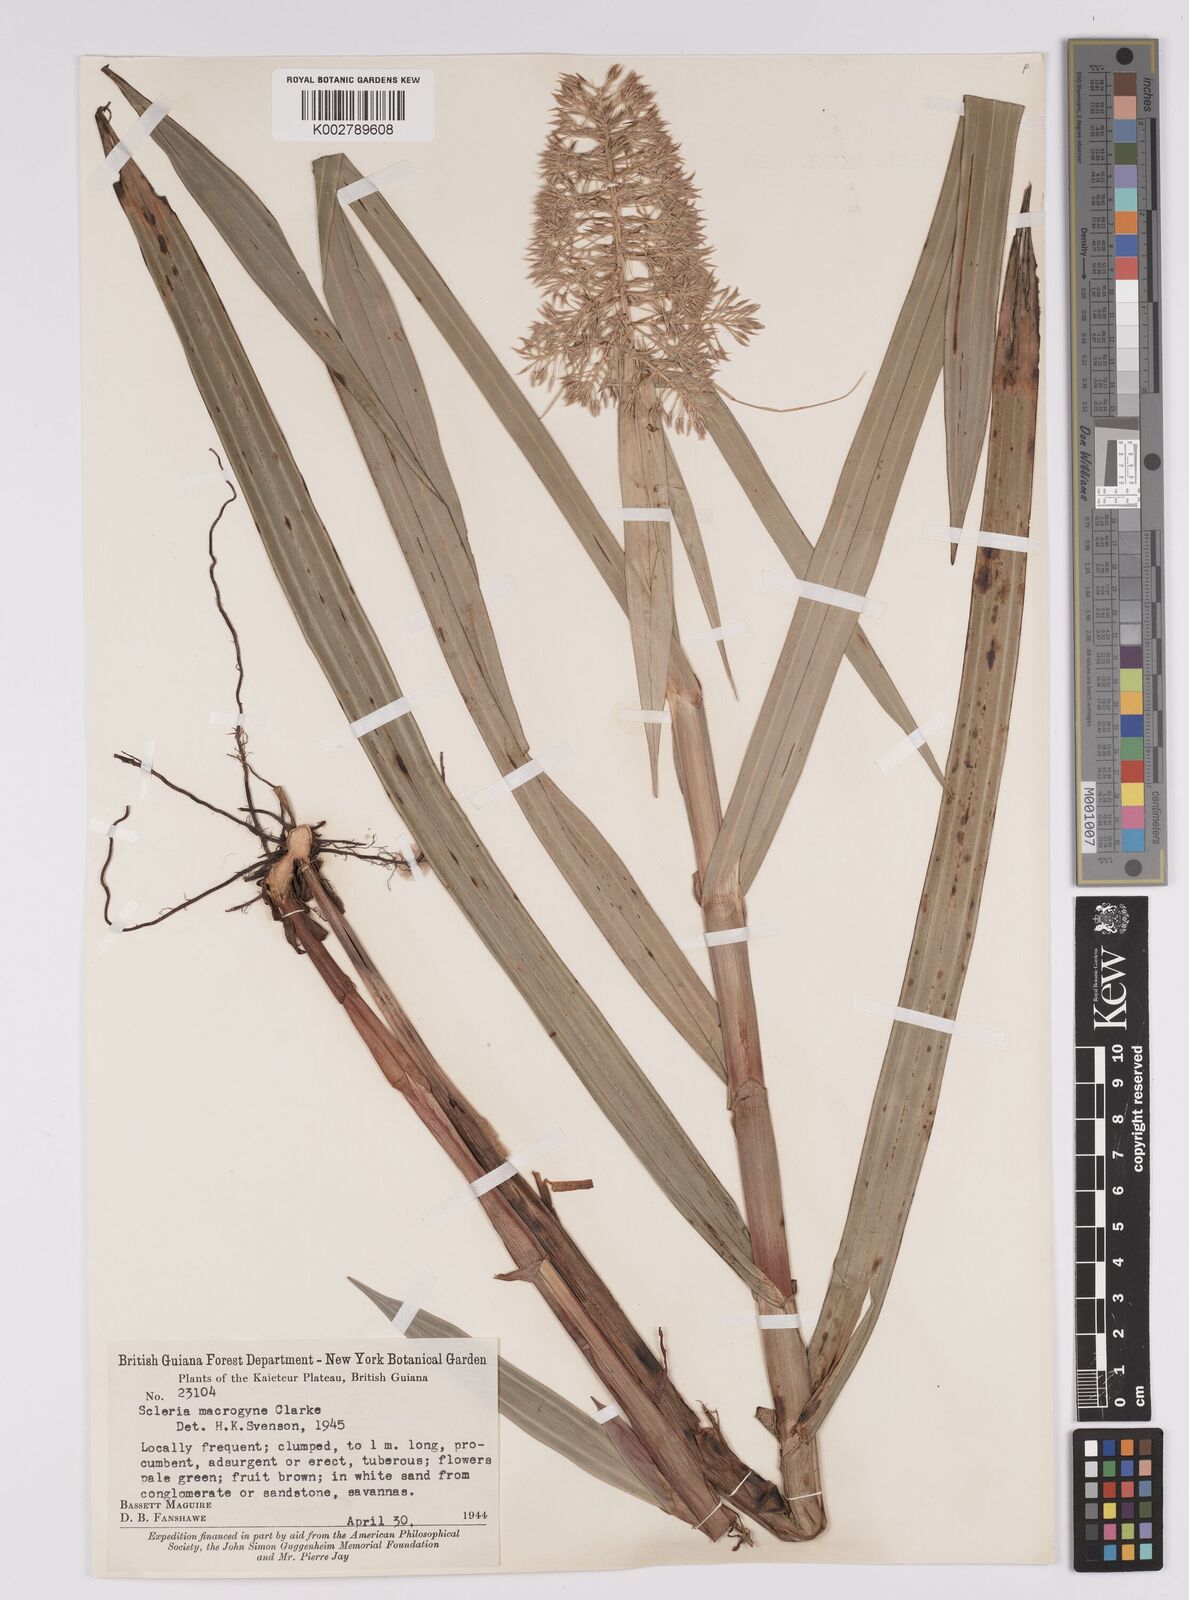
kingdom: Plantae
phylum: Tracheophyta
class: Liliopsida
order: Poales
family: Cyperaceae
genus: Scleria
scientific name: Scleria macrogyne
